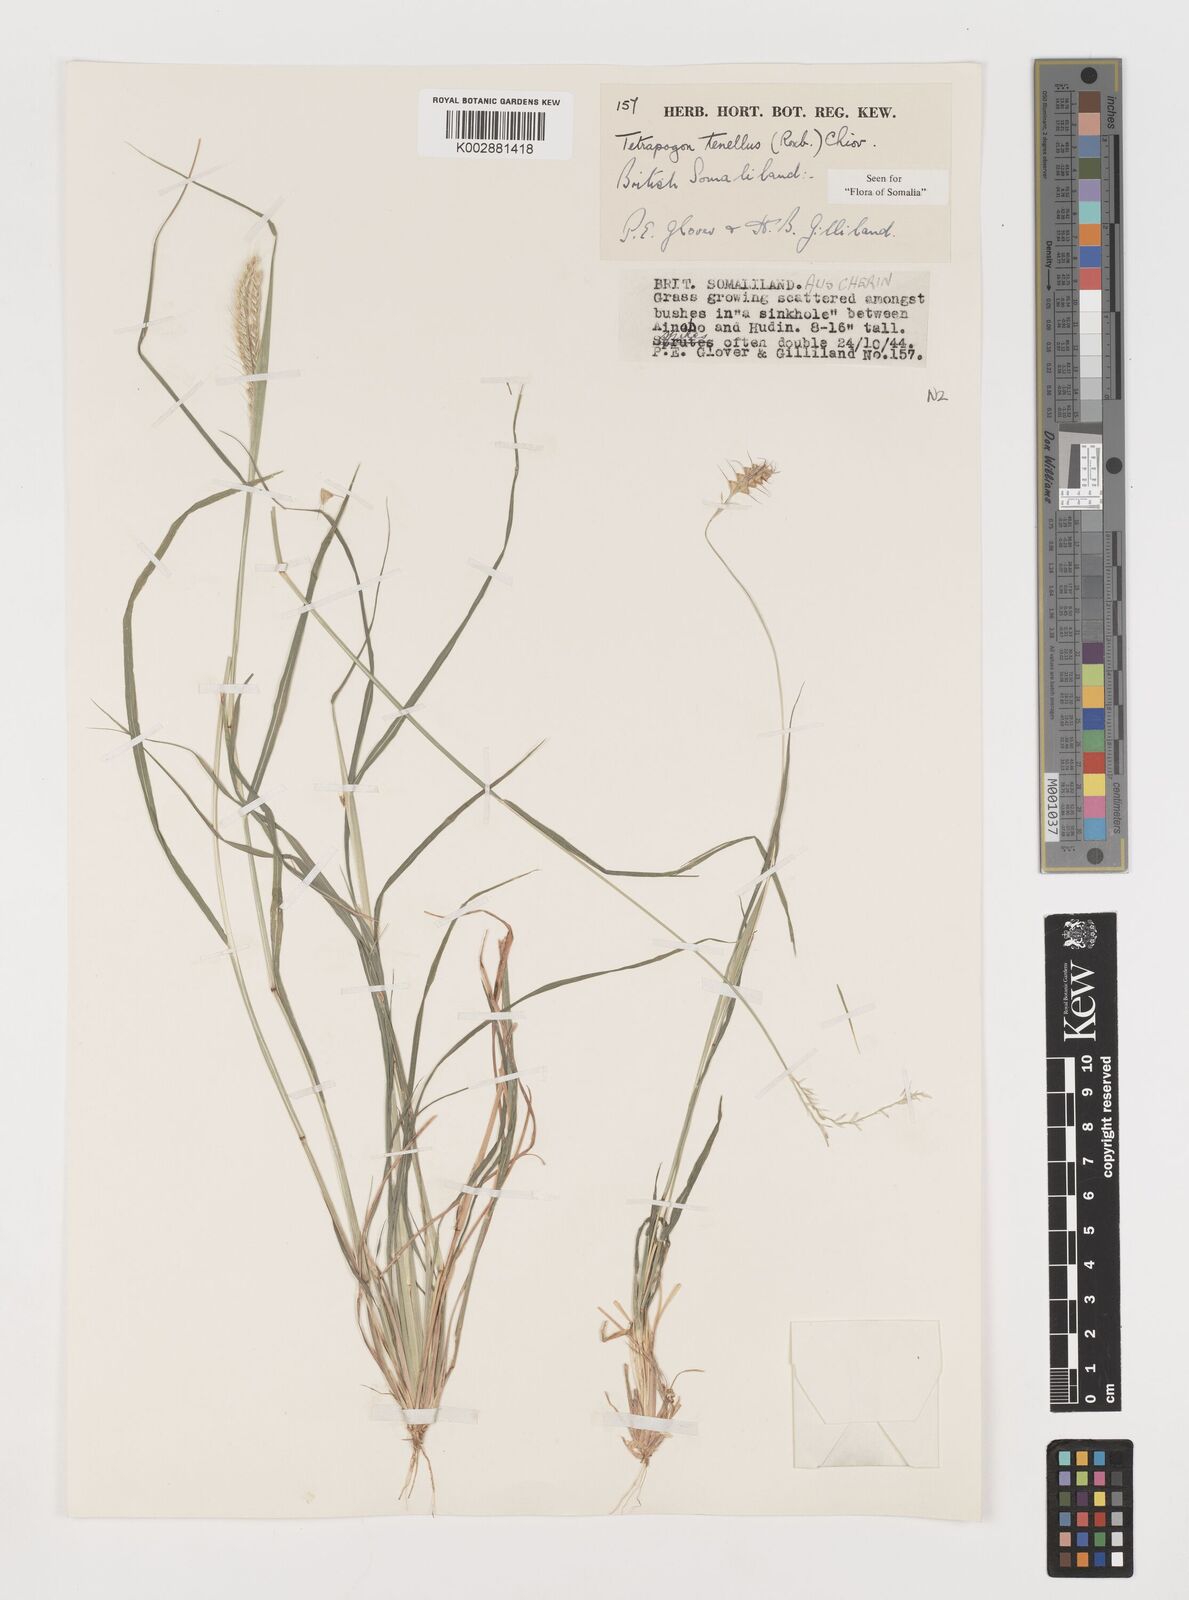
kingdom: Plantae
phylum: Tracheophyta
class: Liliopsida
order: Poales
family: Poaceae
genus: Tetrapogon
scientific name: Tetrapogon tenellus
